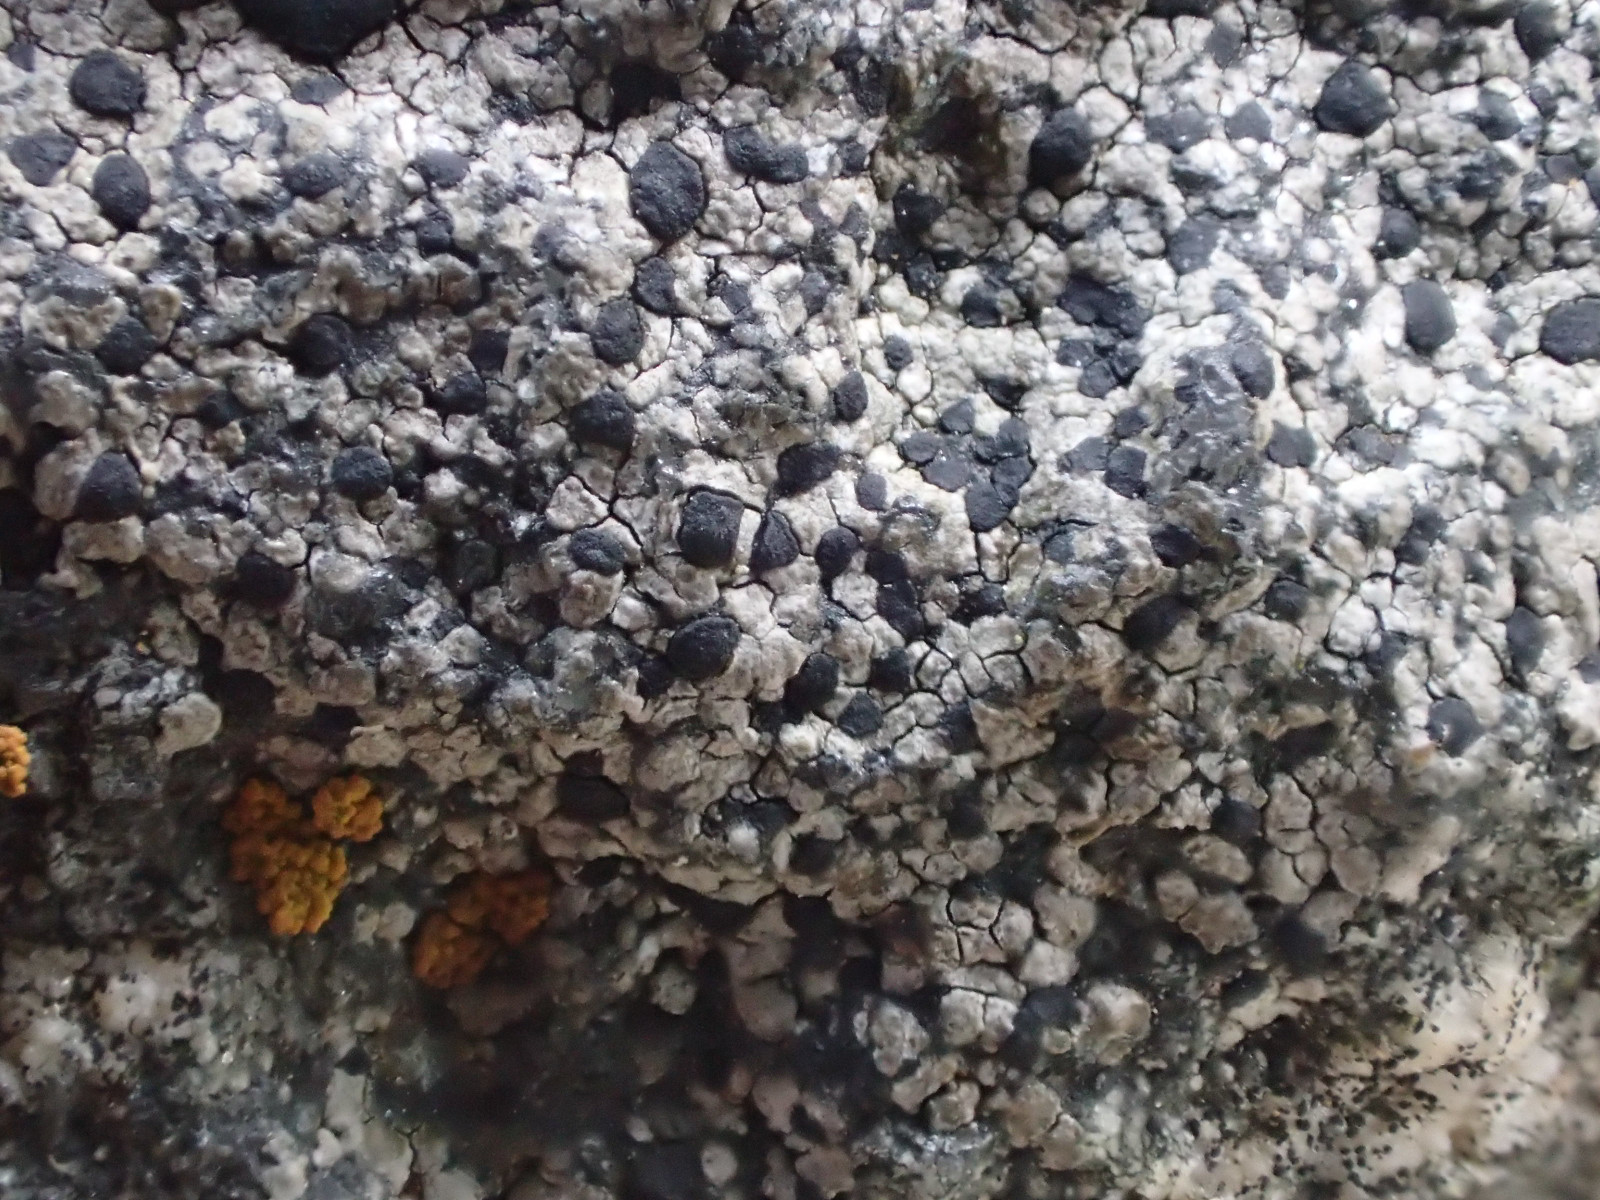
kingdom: Fungi
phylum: Ascomycota
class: Lecanoromycetes
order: Rhizocarpales
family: Rhizocarpaceae
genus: Rhizocarpon
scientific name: Rhizocarpon reductum
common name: mørk landkortlav
